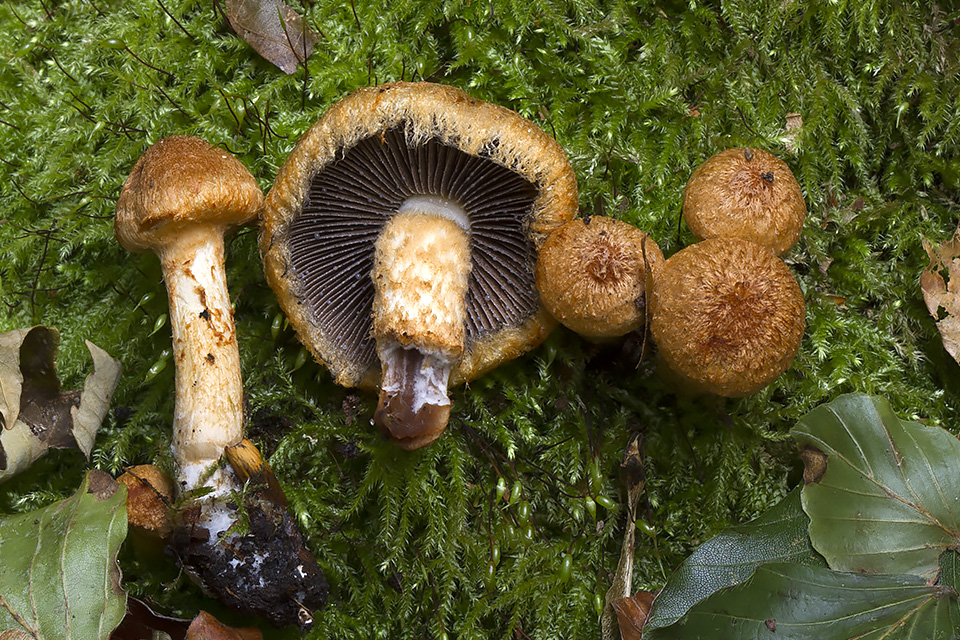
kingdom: Fungi
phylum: Basidiomycota
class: Agaricomycetes
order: Agaricales
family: Psathyrellaceae
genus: Lacrymaria
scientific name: Lacrymaria pyrotricha
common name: ildhåret mørkhat
